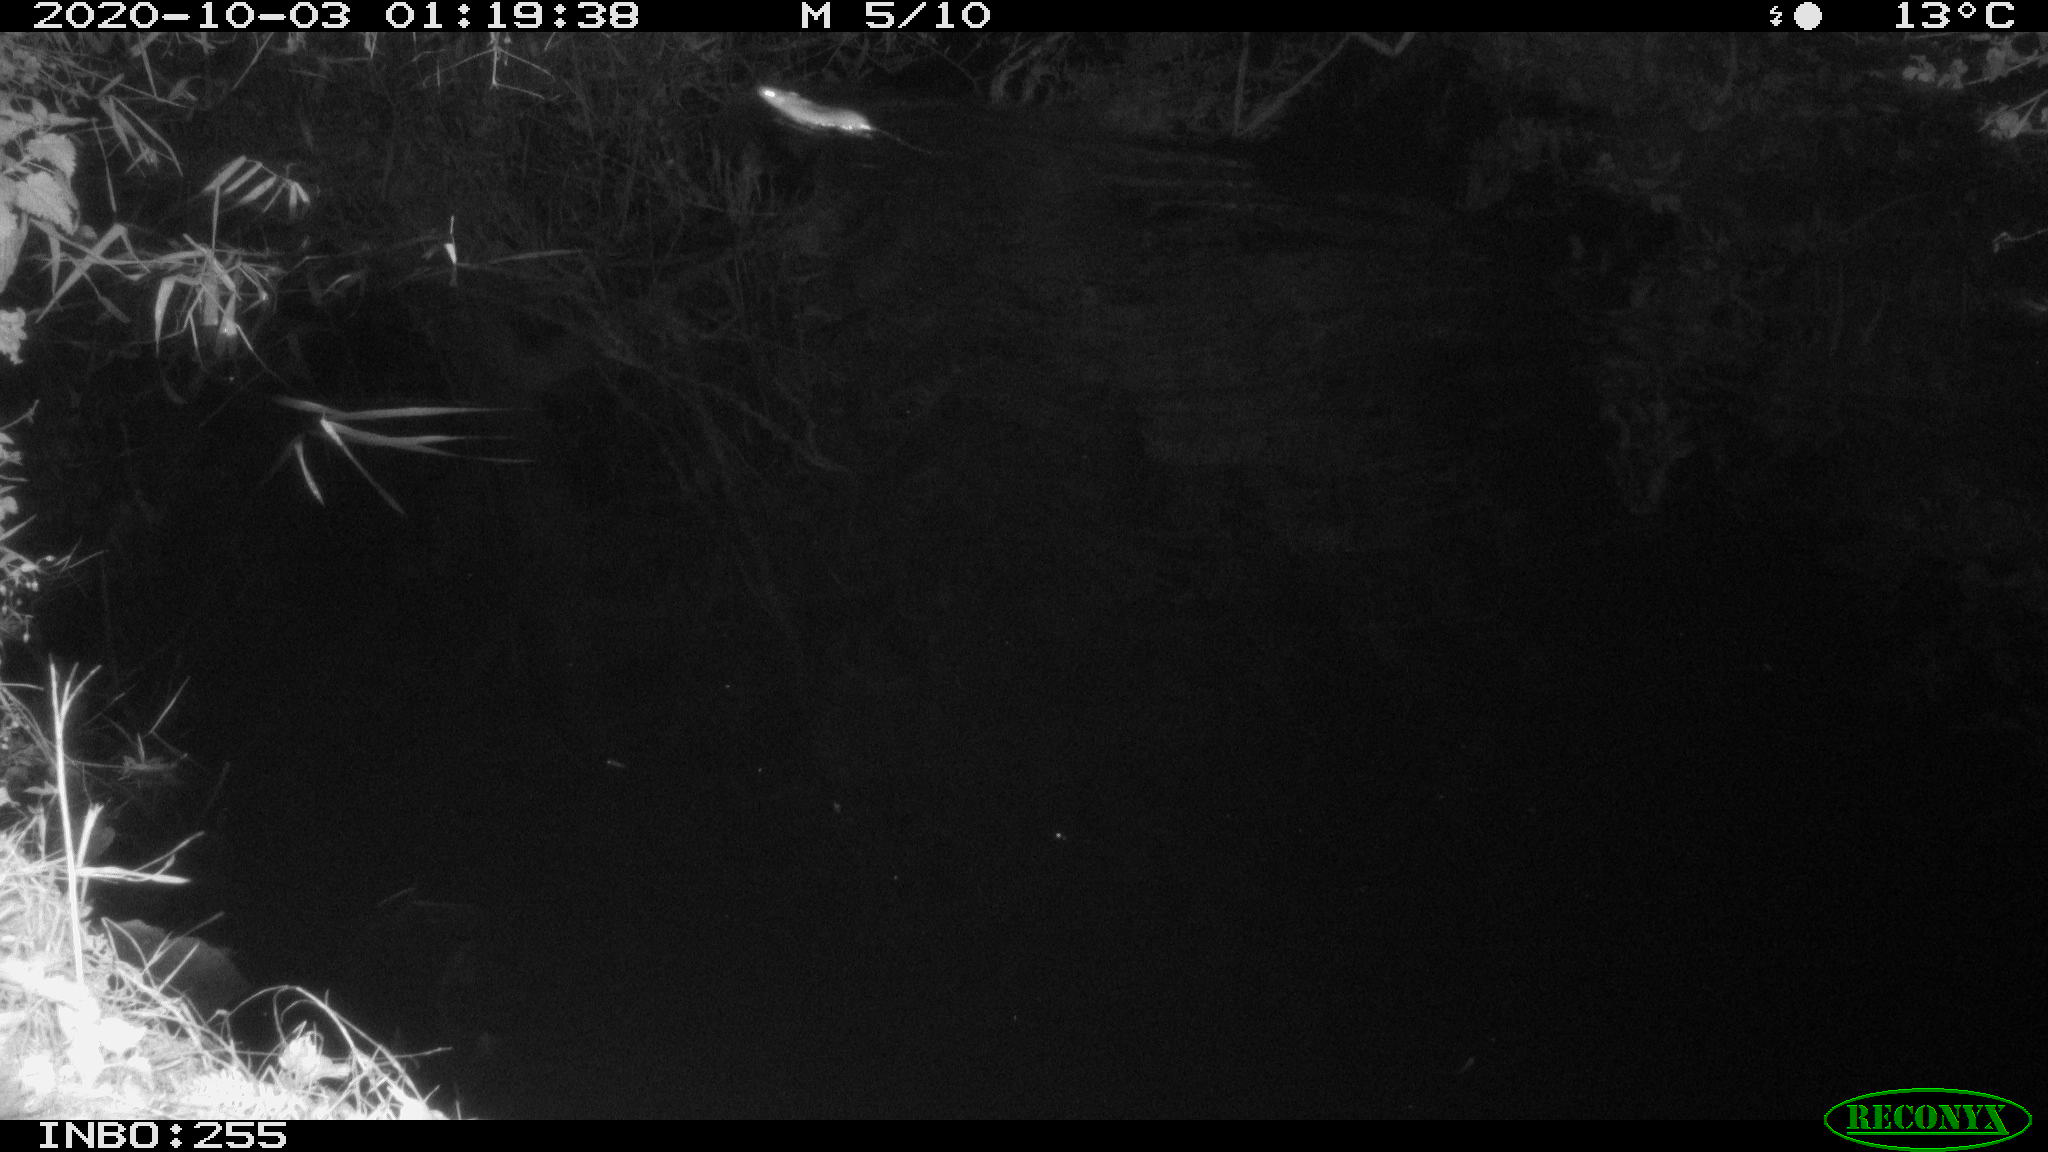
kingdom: Animalia
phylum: Chordata
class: Mammalia
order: Rodentia
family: Muridae
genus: Rattus
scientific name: Rattus norvegicus
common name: Brown rat
